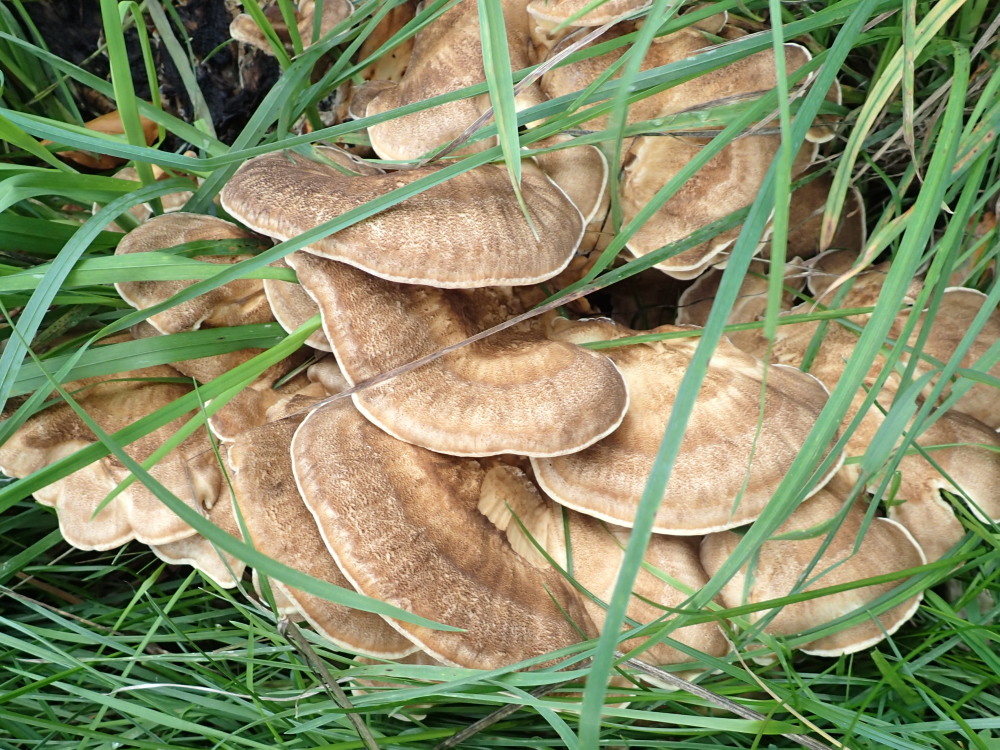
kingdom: Fungi
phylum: Basidiomycota
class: Agaricomycetes
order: Polyporales
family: Meripilaceae
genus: Meripilus
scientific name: Meripilus giganteus
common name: kæmpeporesvamp
